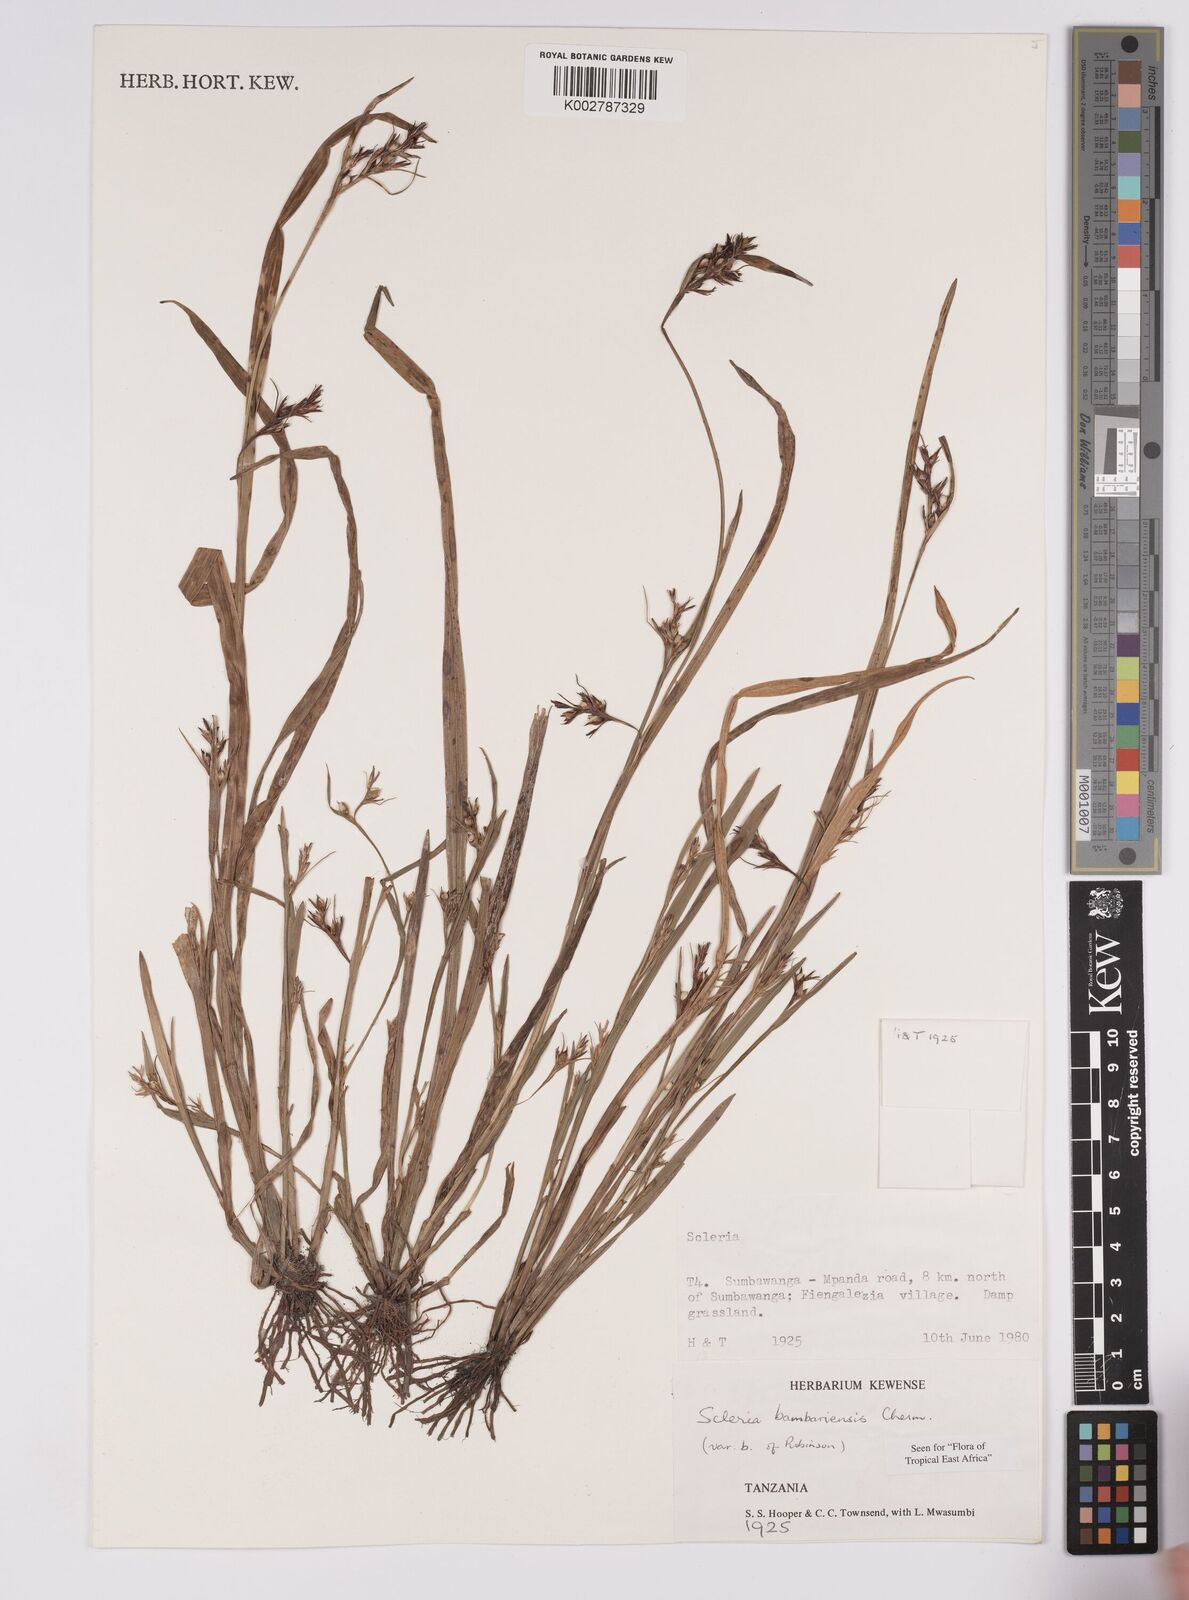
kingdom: Plantae
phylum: Tracheophyta
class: Liliopsida
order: Poales
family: Cyperaceae
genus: Scleria
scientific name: Scleria bambariensis
